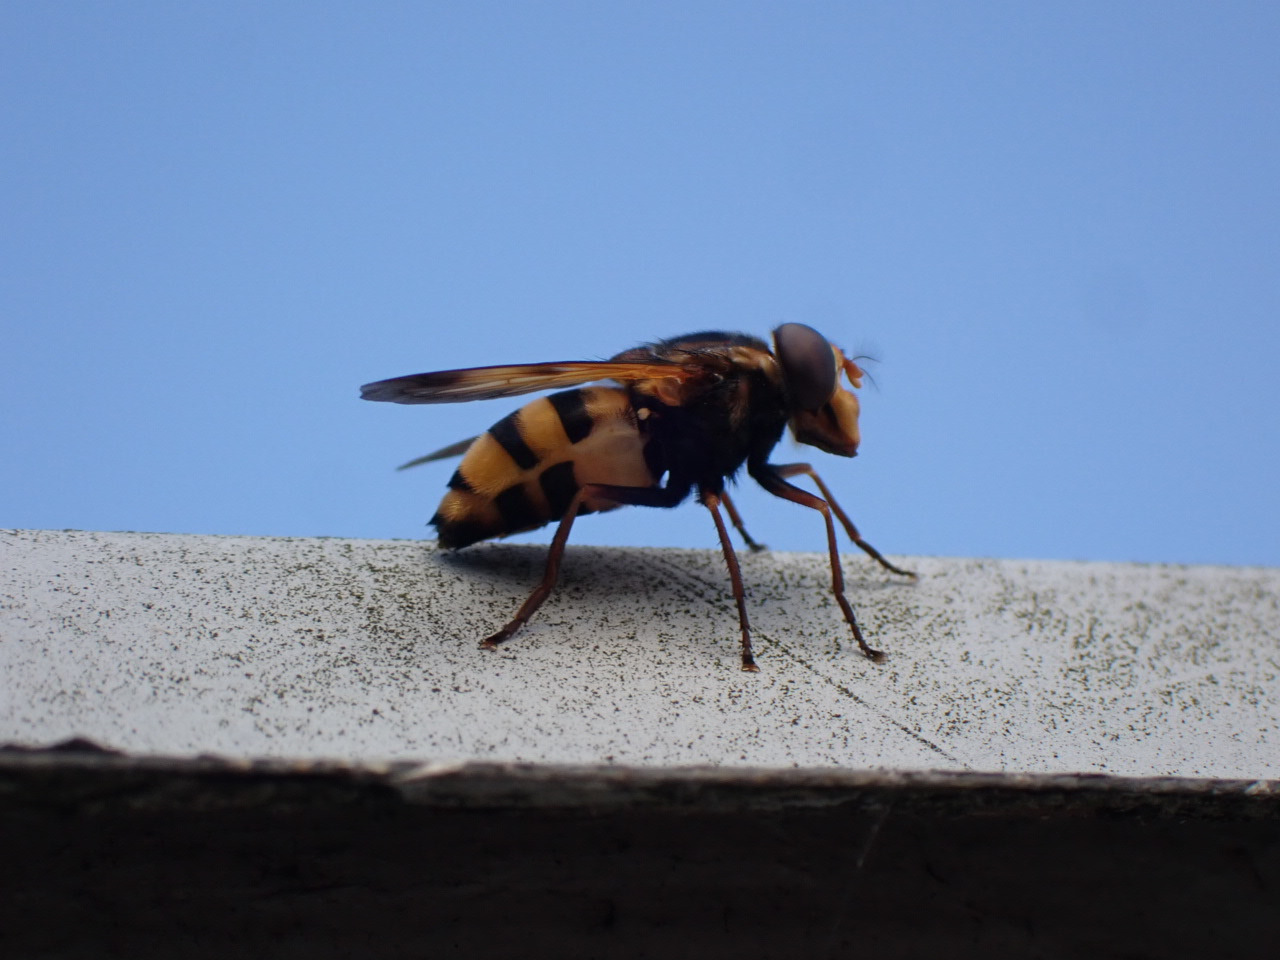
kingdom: Animalia
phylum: Arthropoda
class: Insecta
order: Diptera
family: Syrphidae
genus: Volucella
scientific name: Volucella inanis
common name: Gul humlesvirreflue
